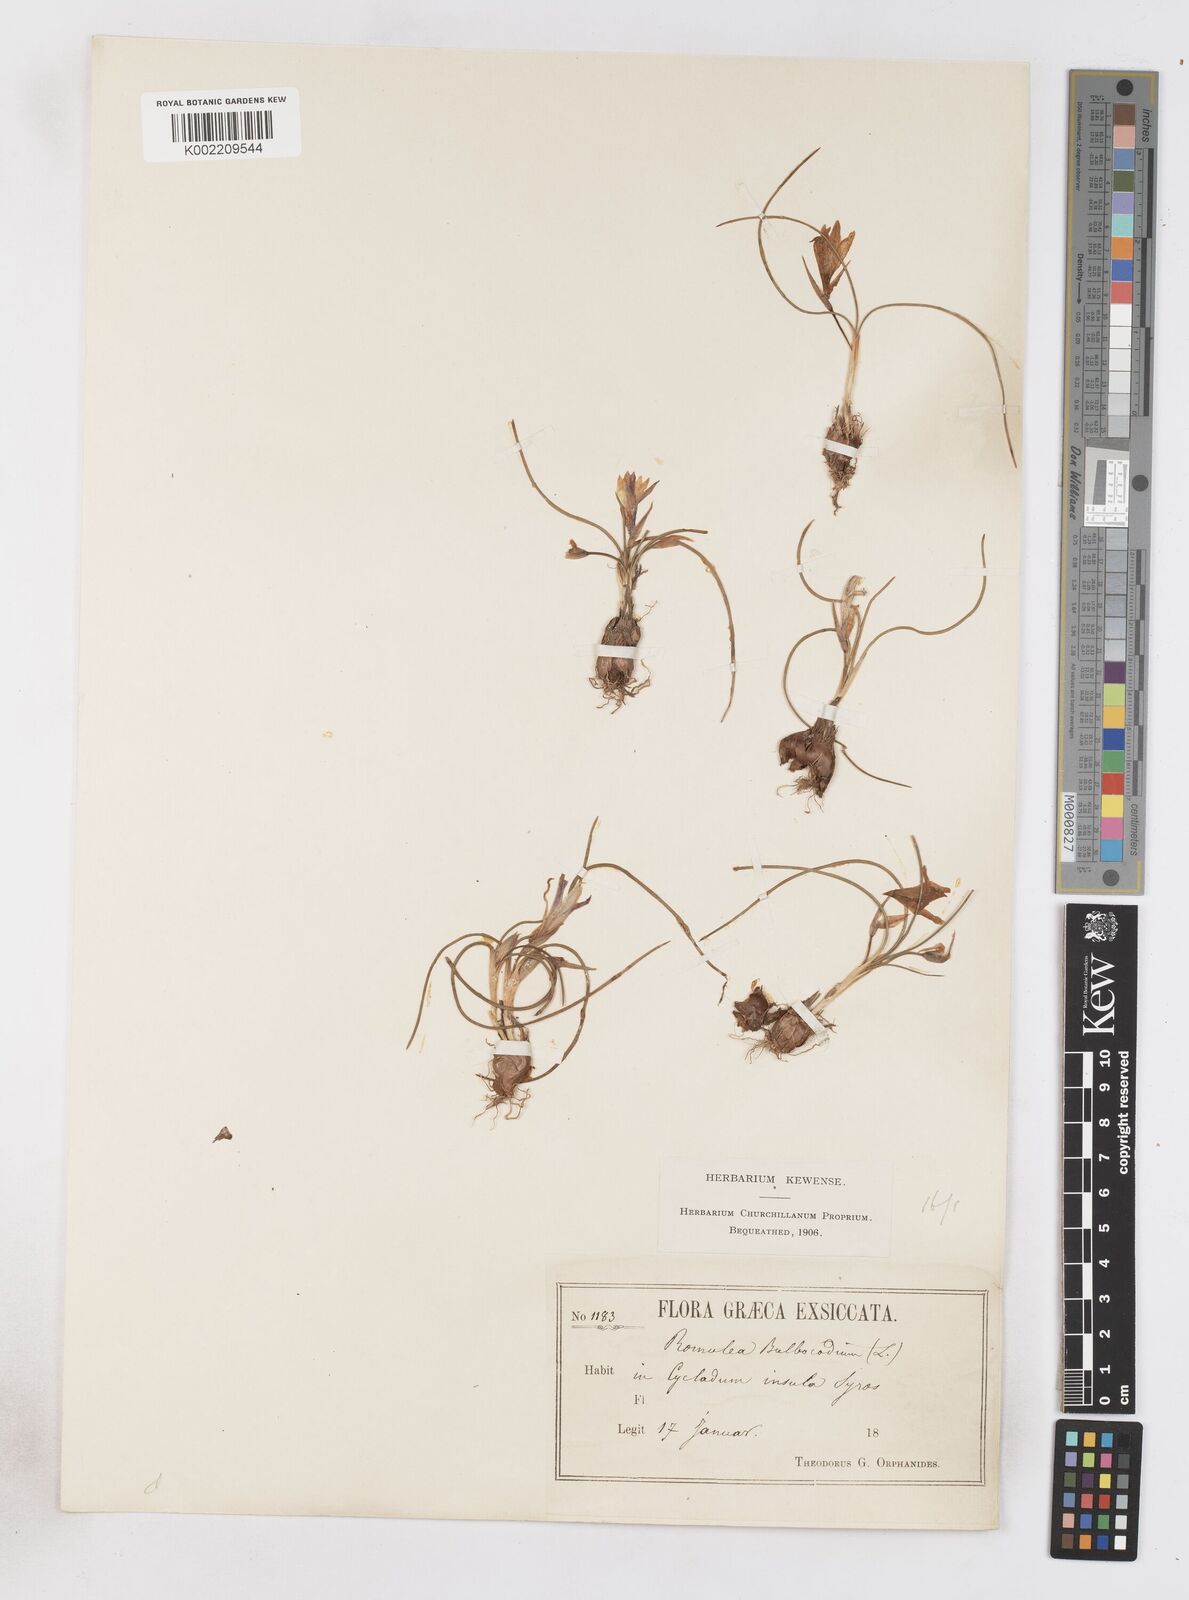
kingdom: Plantae
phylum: Tracheophyta
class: Liliopsida
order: Asparagales
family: Iridaceae
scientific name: Iridaceae
